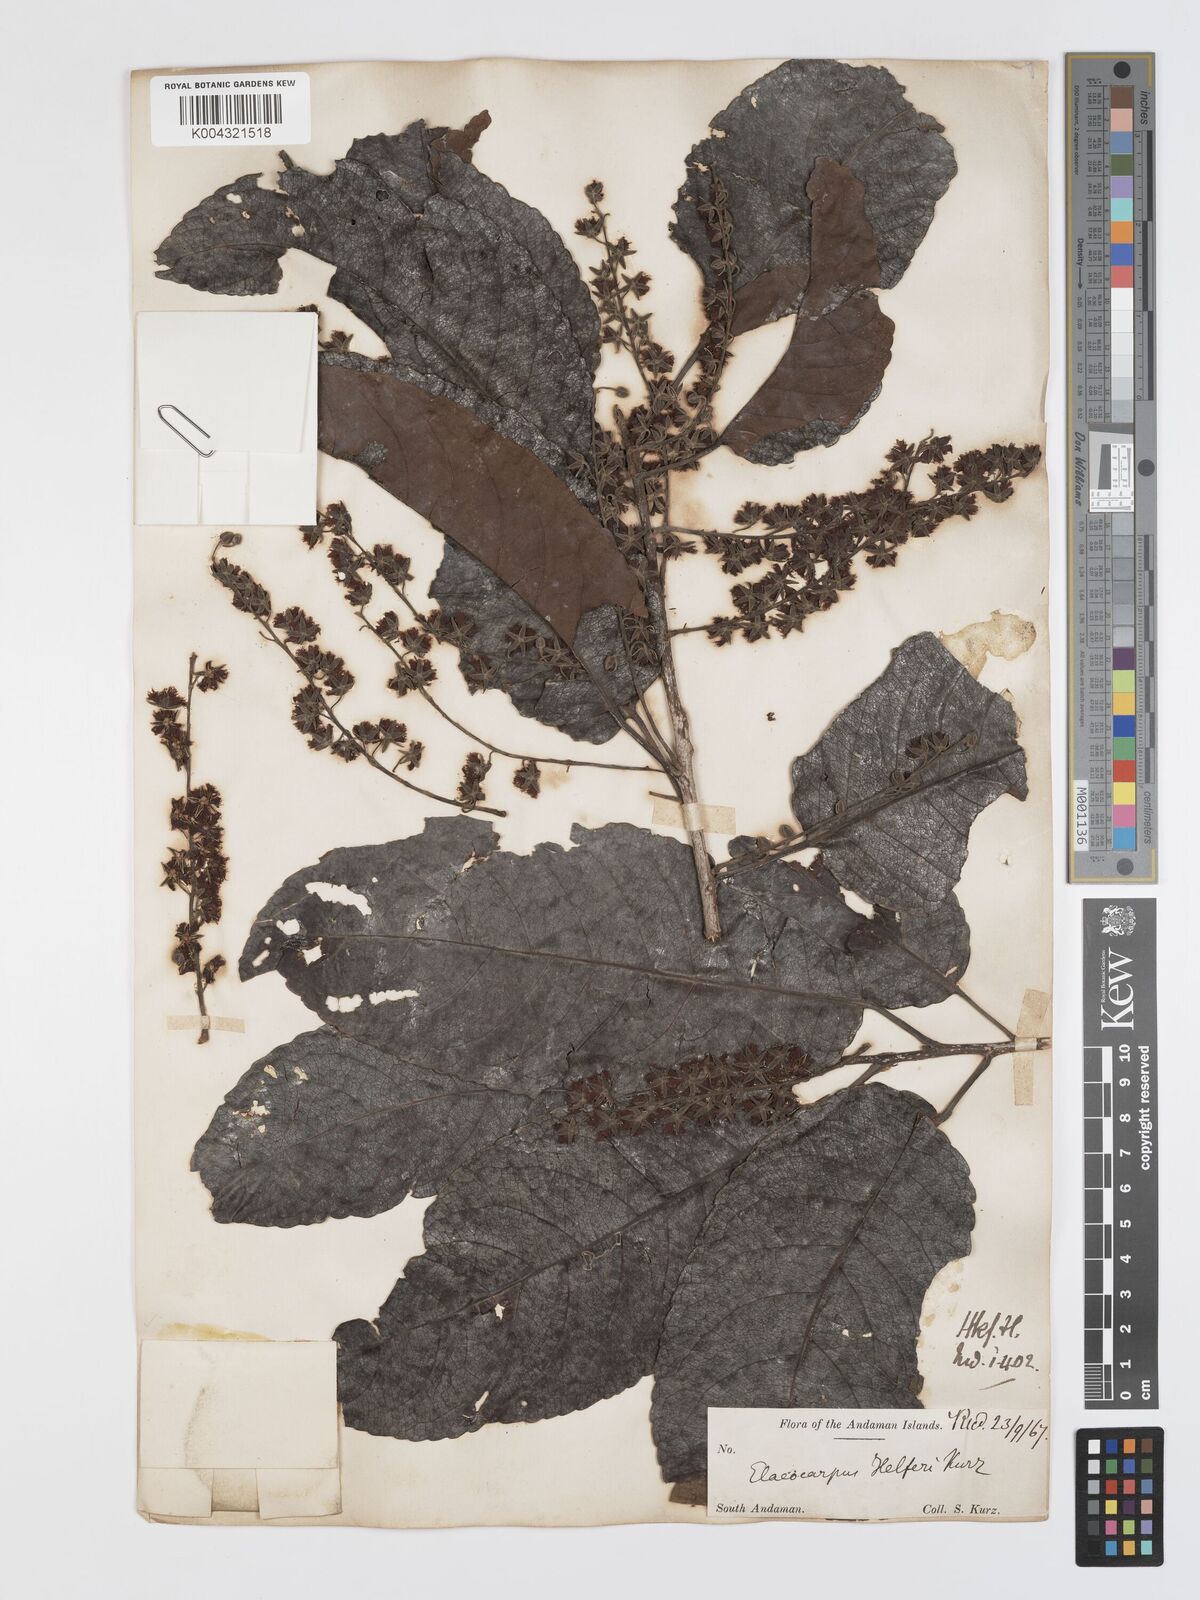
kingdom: Plantae
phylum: Tracheophyta
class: Magnoliopsida
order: Oxalidales
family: Elaeocarpaceae
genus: Elaeocarpus
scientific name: Elaeocarpus robustus
